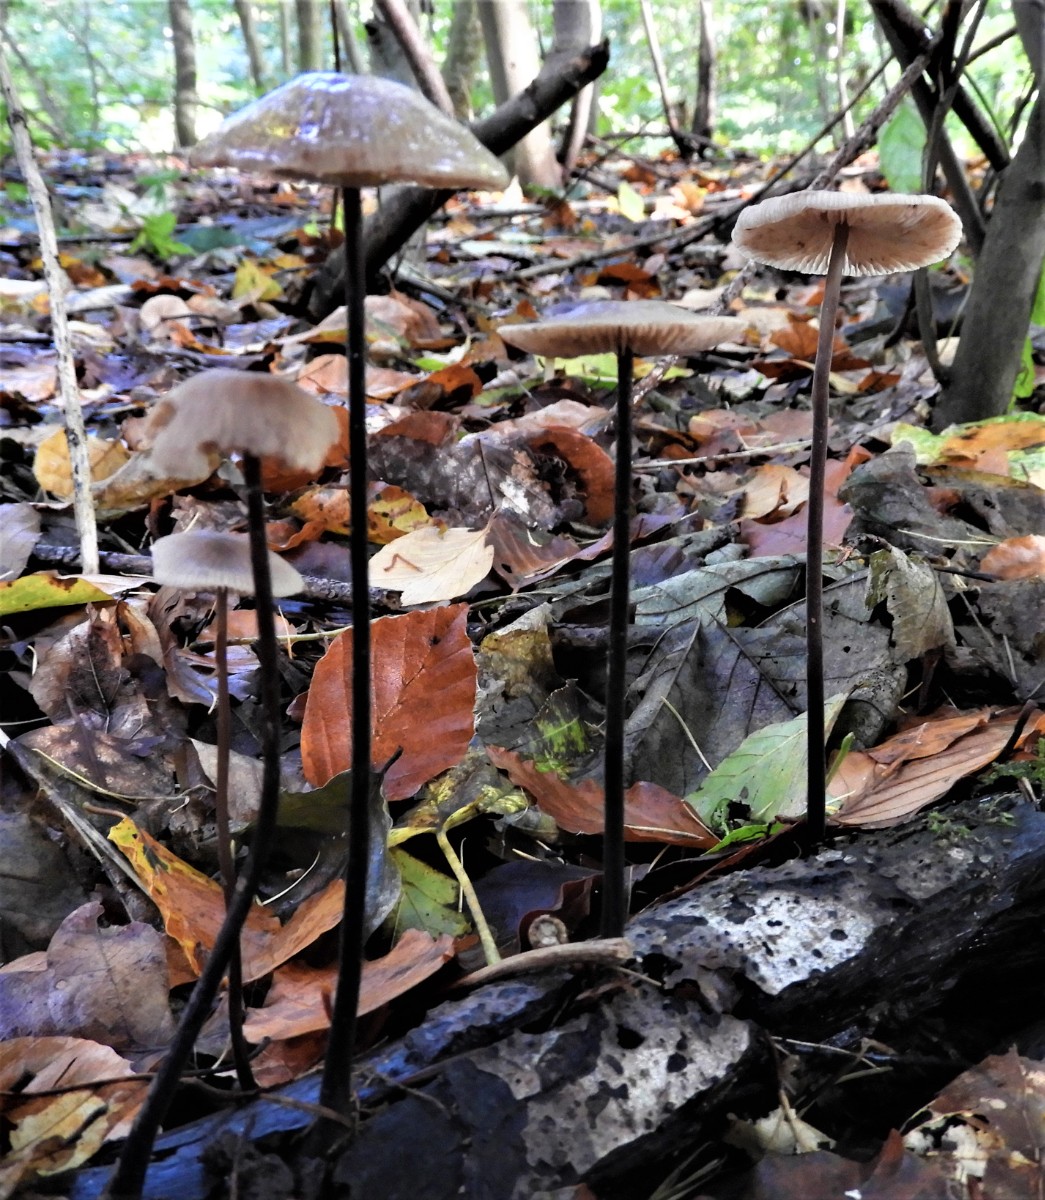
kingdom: Fungi
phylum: Basidiomycota
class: Agaricomycetes
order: Agaricales
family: Omphalotaceae
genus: Mycetinis
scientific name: Mycetinis alliaceus
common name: stor løghat
